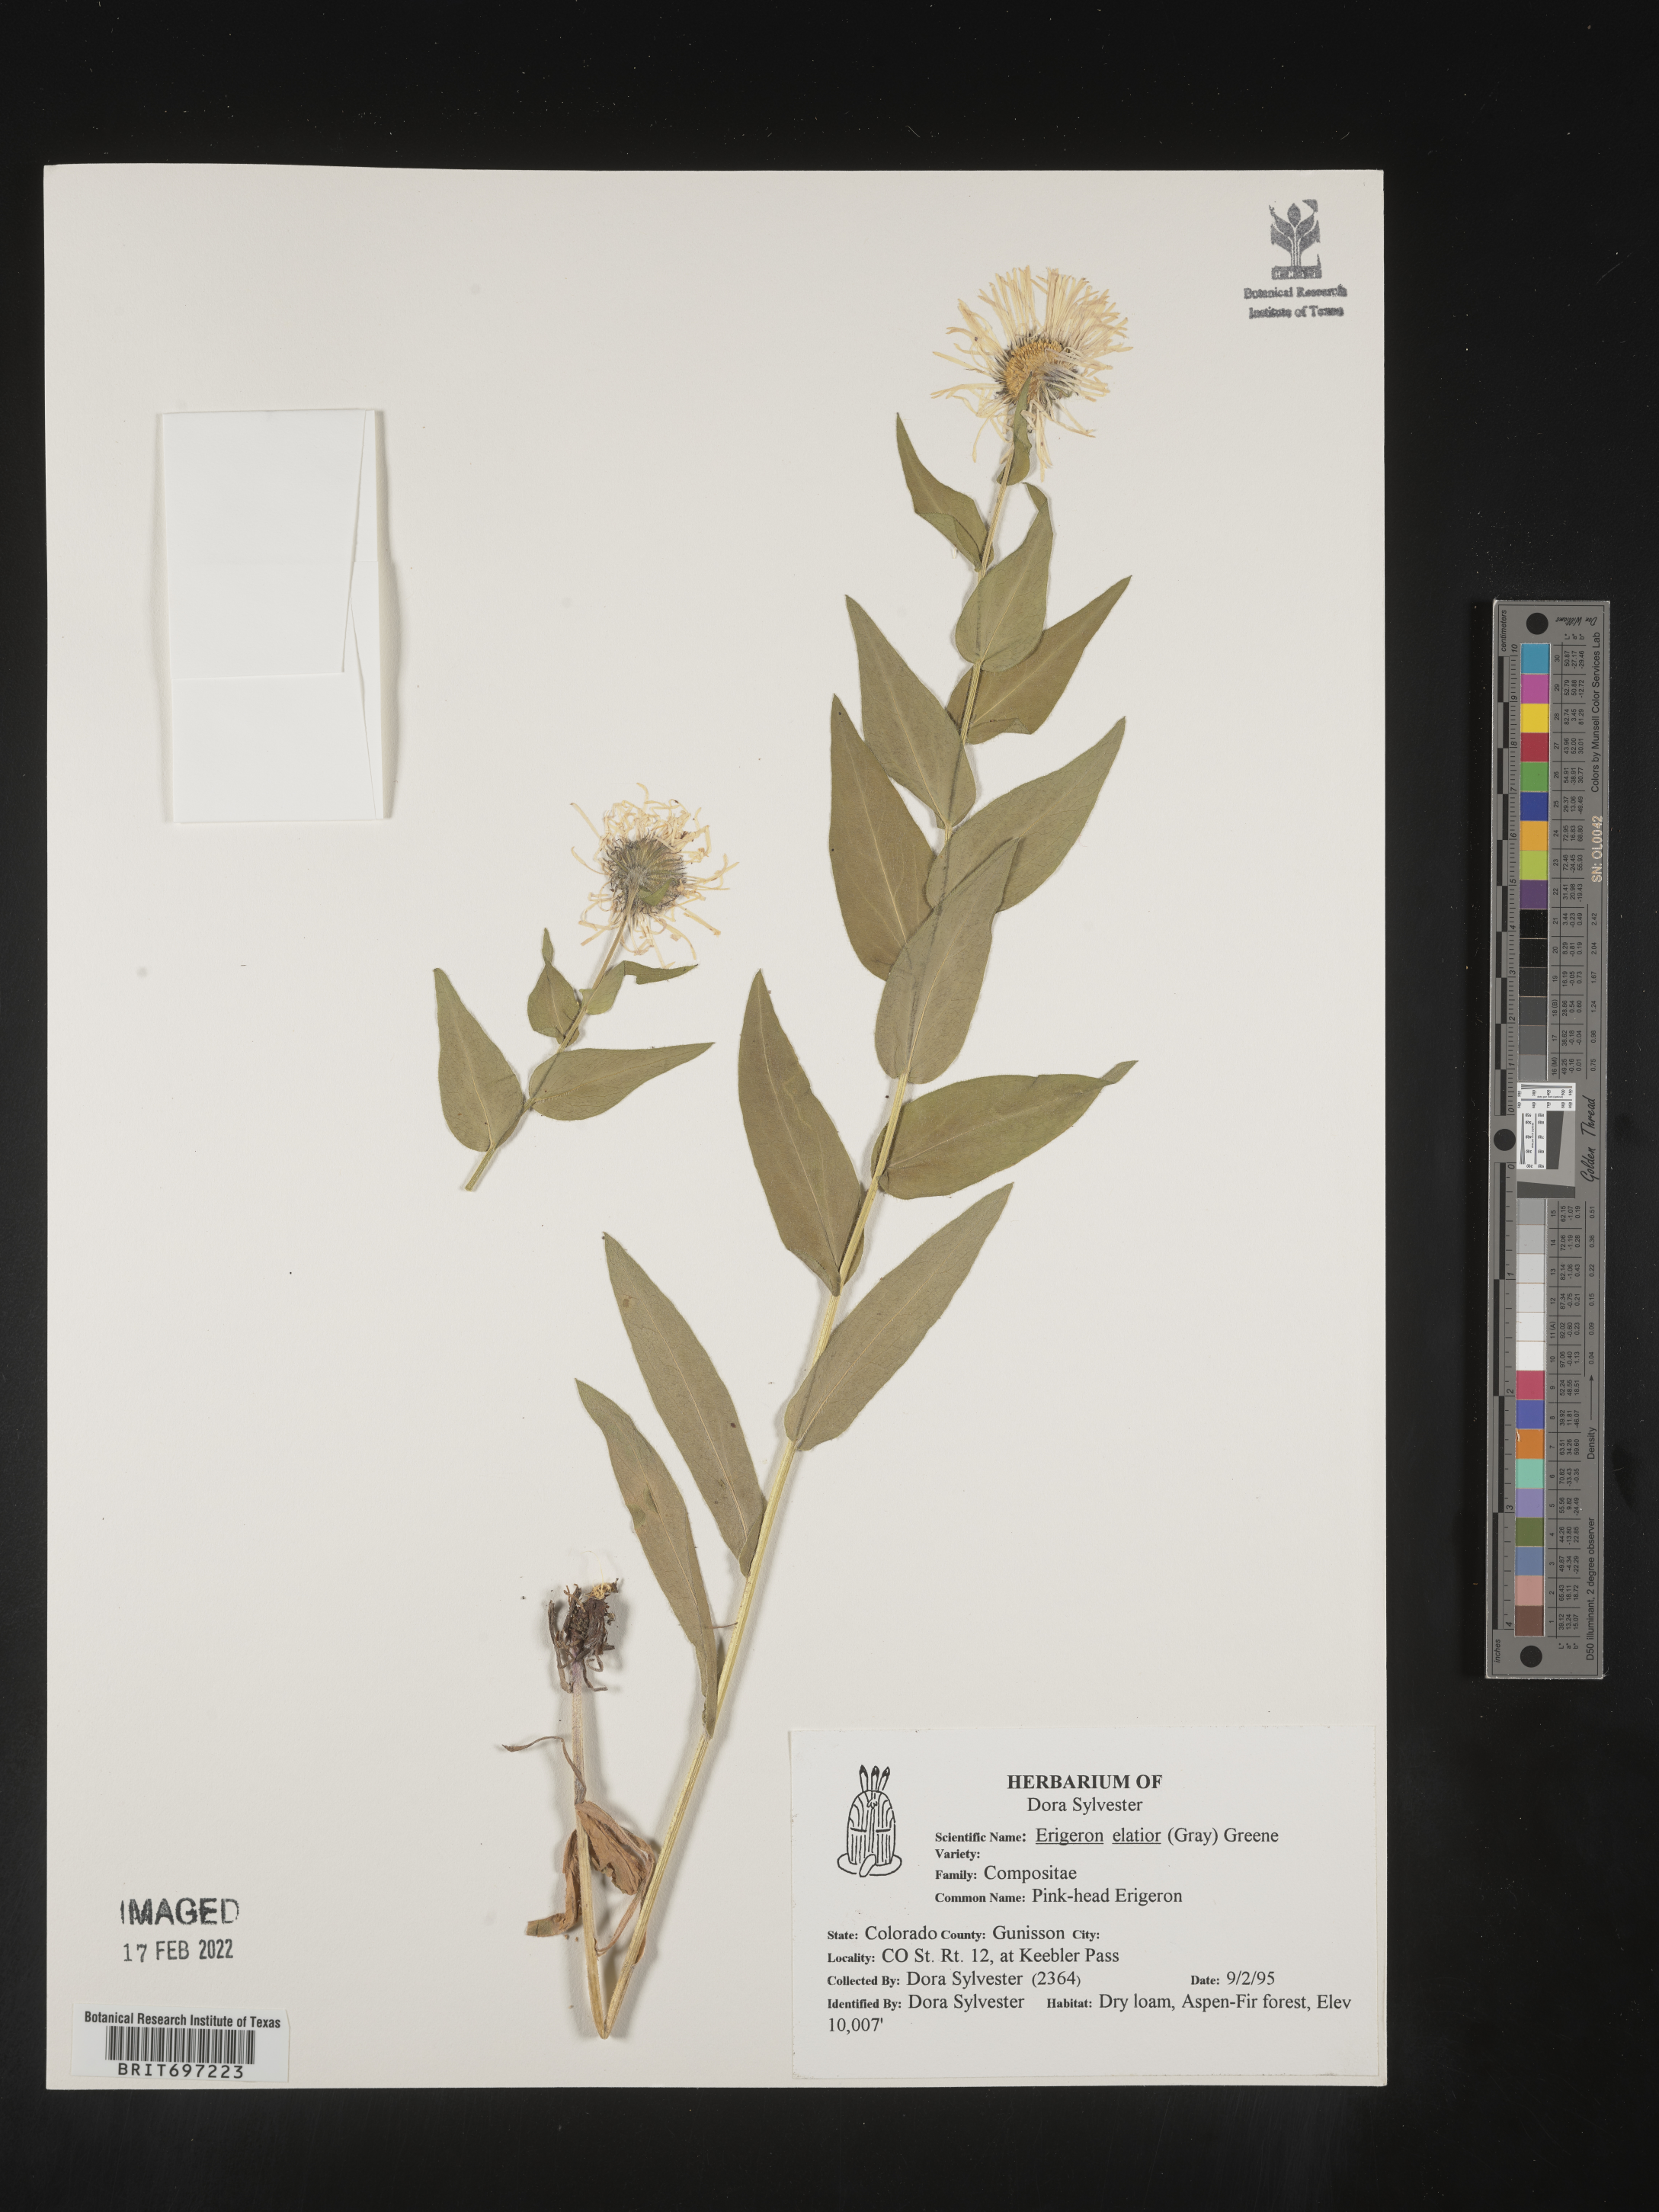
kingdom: Plantae
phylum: Tracheophyta
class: Magnoliopsida
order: Asterales
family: Asteraceae
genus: Erigeron
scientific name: Erigeron elatior
